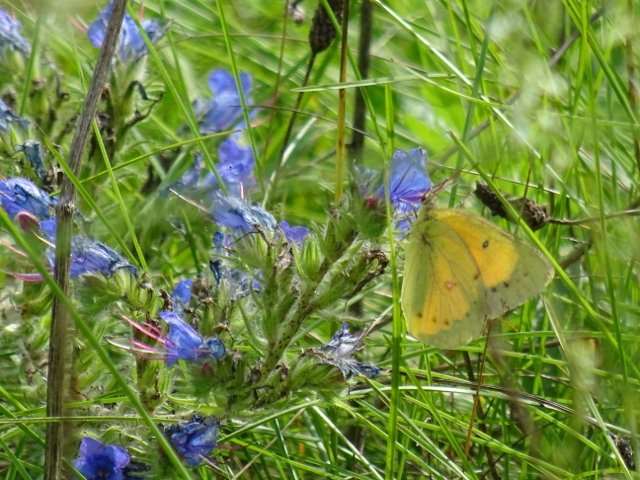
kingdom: Animalia
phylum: Arthropoda
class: Insecta
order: Lepidoptera
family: Pieridae
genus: Colias
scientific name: Colias eurytheme
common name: Orange Sulphur
